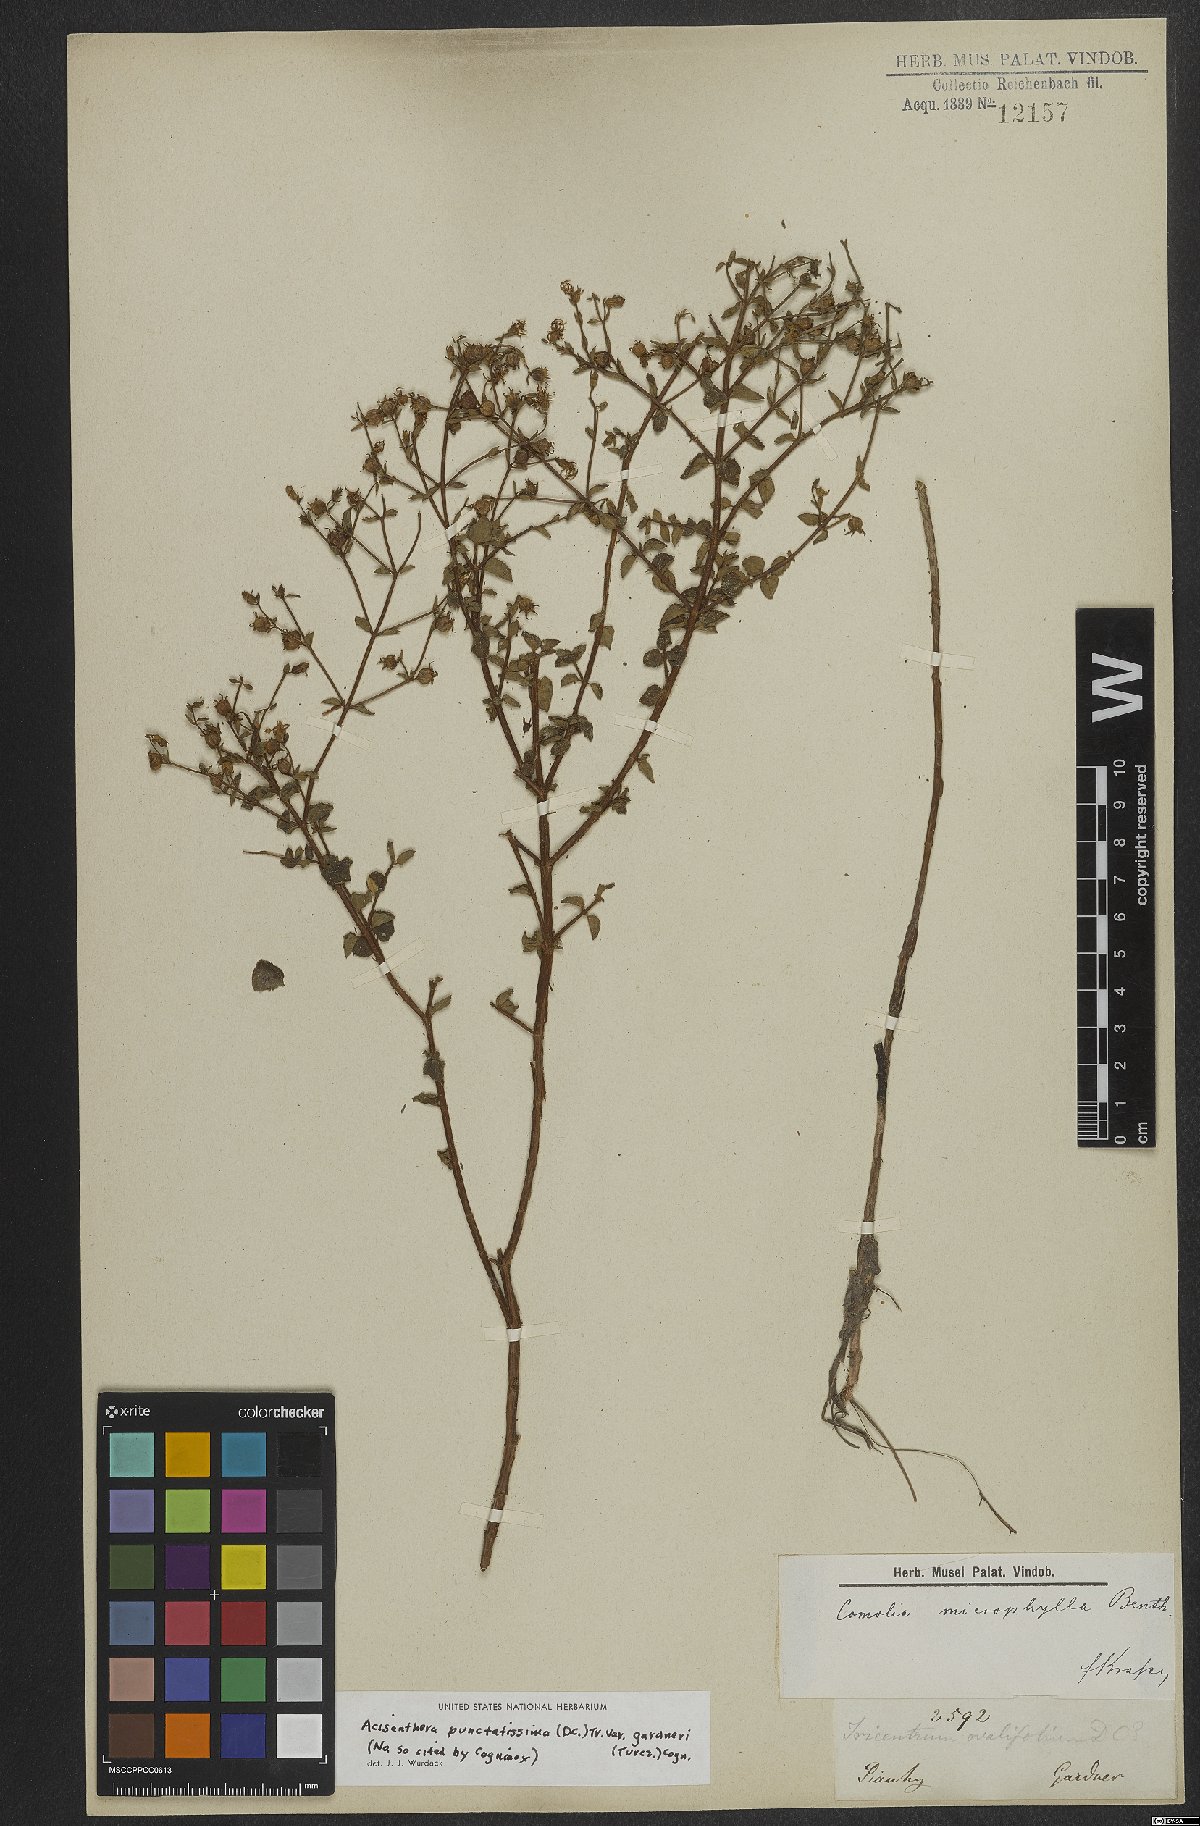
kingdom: Plantae
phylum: Tracheophyta
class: Magnoliopsida
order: Myrtales
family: Melastomataceae
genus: Acisanthera
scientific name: Acisanthera quadrata
